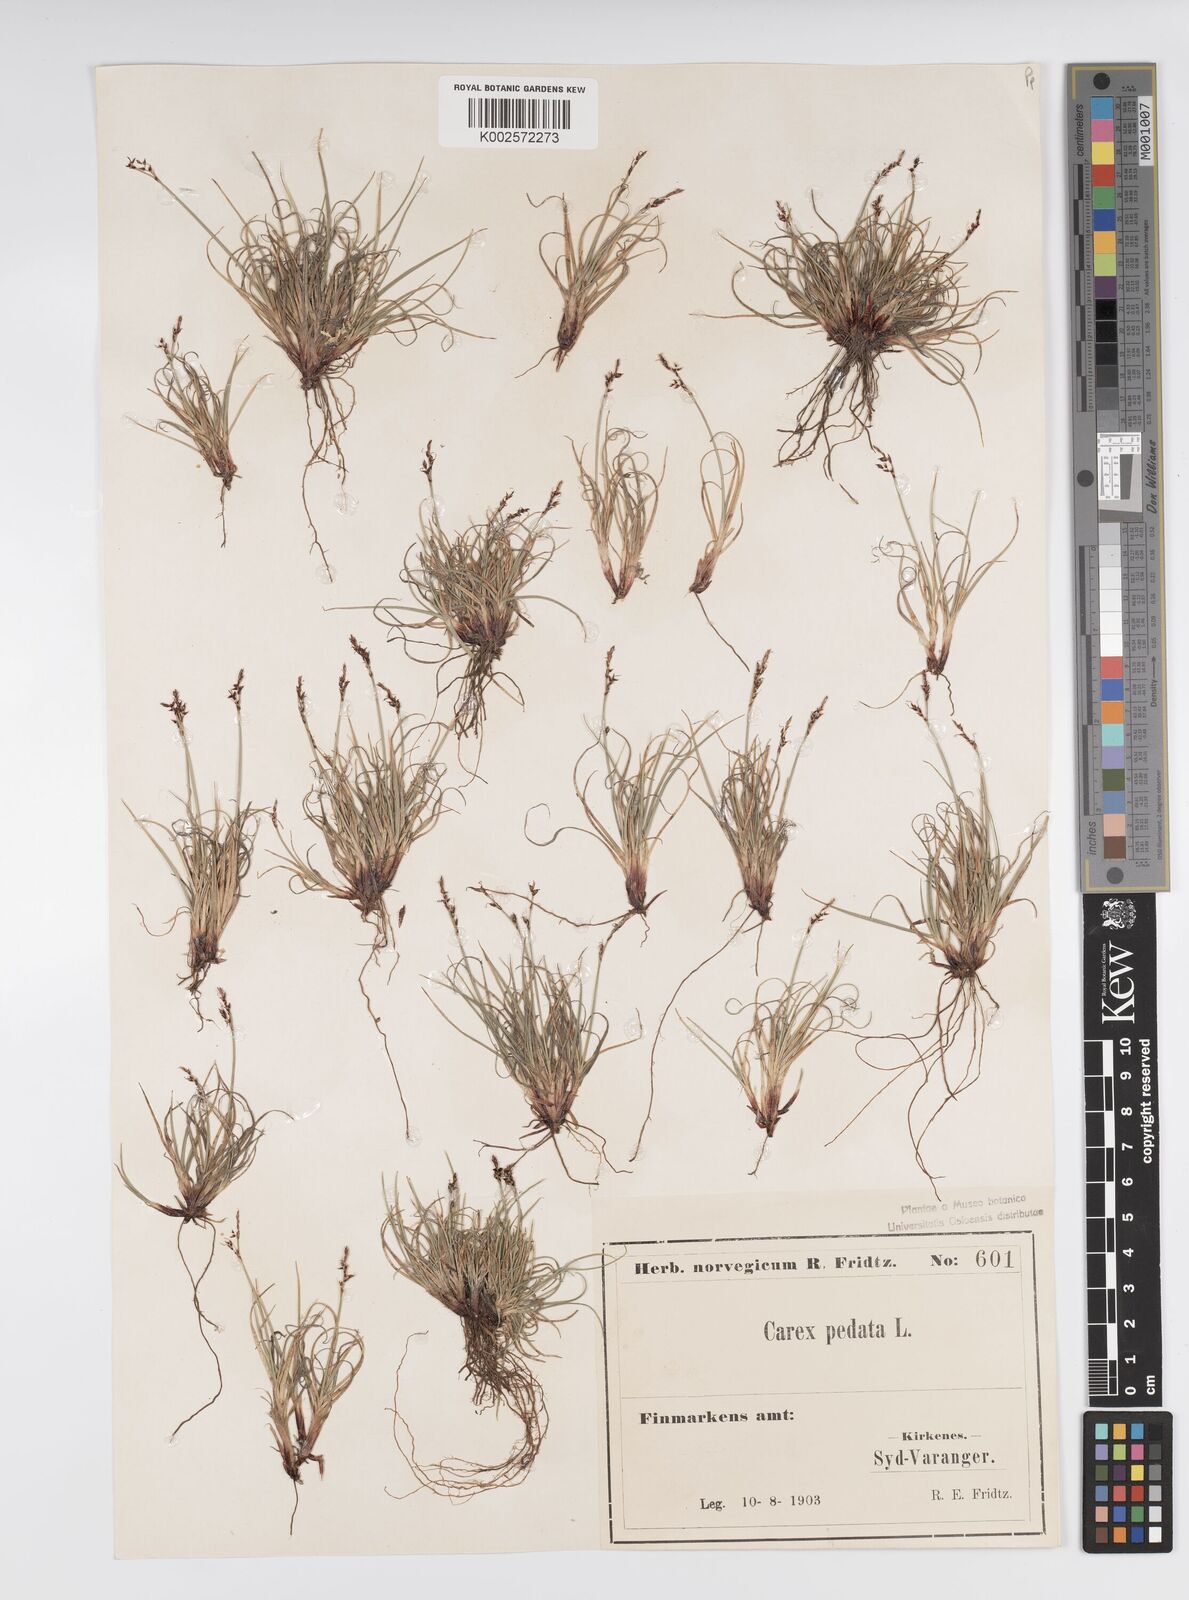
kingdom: Plantae
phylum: Tracheophyta
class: Liliopsida
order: Poales
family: Cyperaceae
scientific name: Cyperaceae
